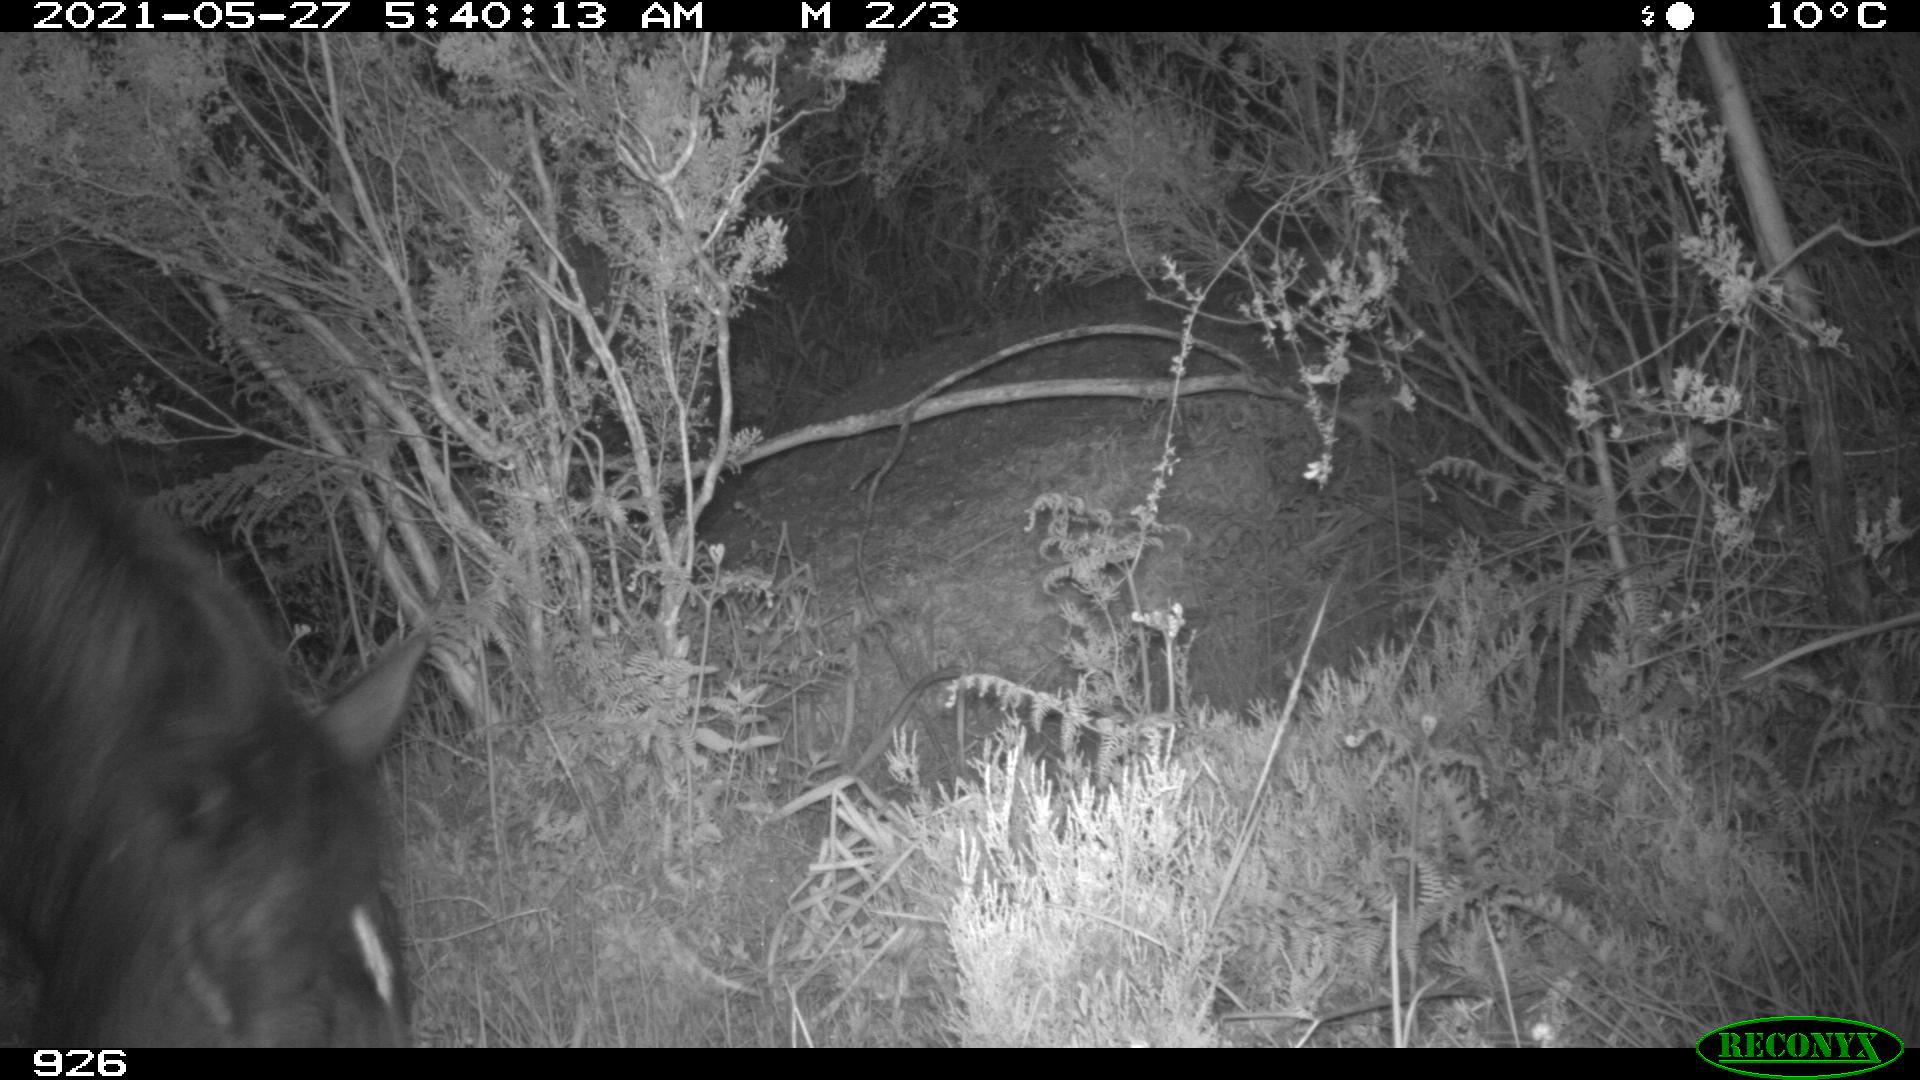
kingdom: Animalia
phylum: Chordata
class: Mammalia
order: Perissodactyla
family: Equidae
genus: Equus
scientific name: Equus caballus
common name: Horse
